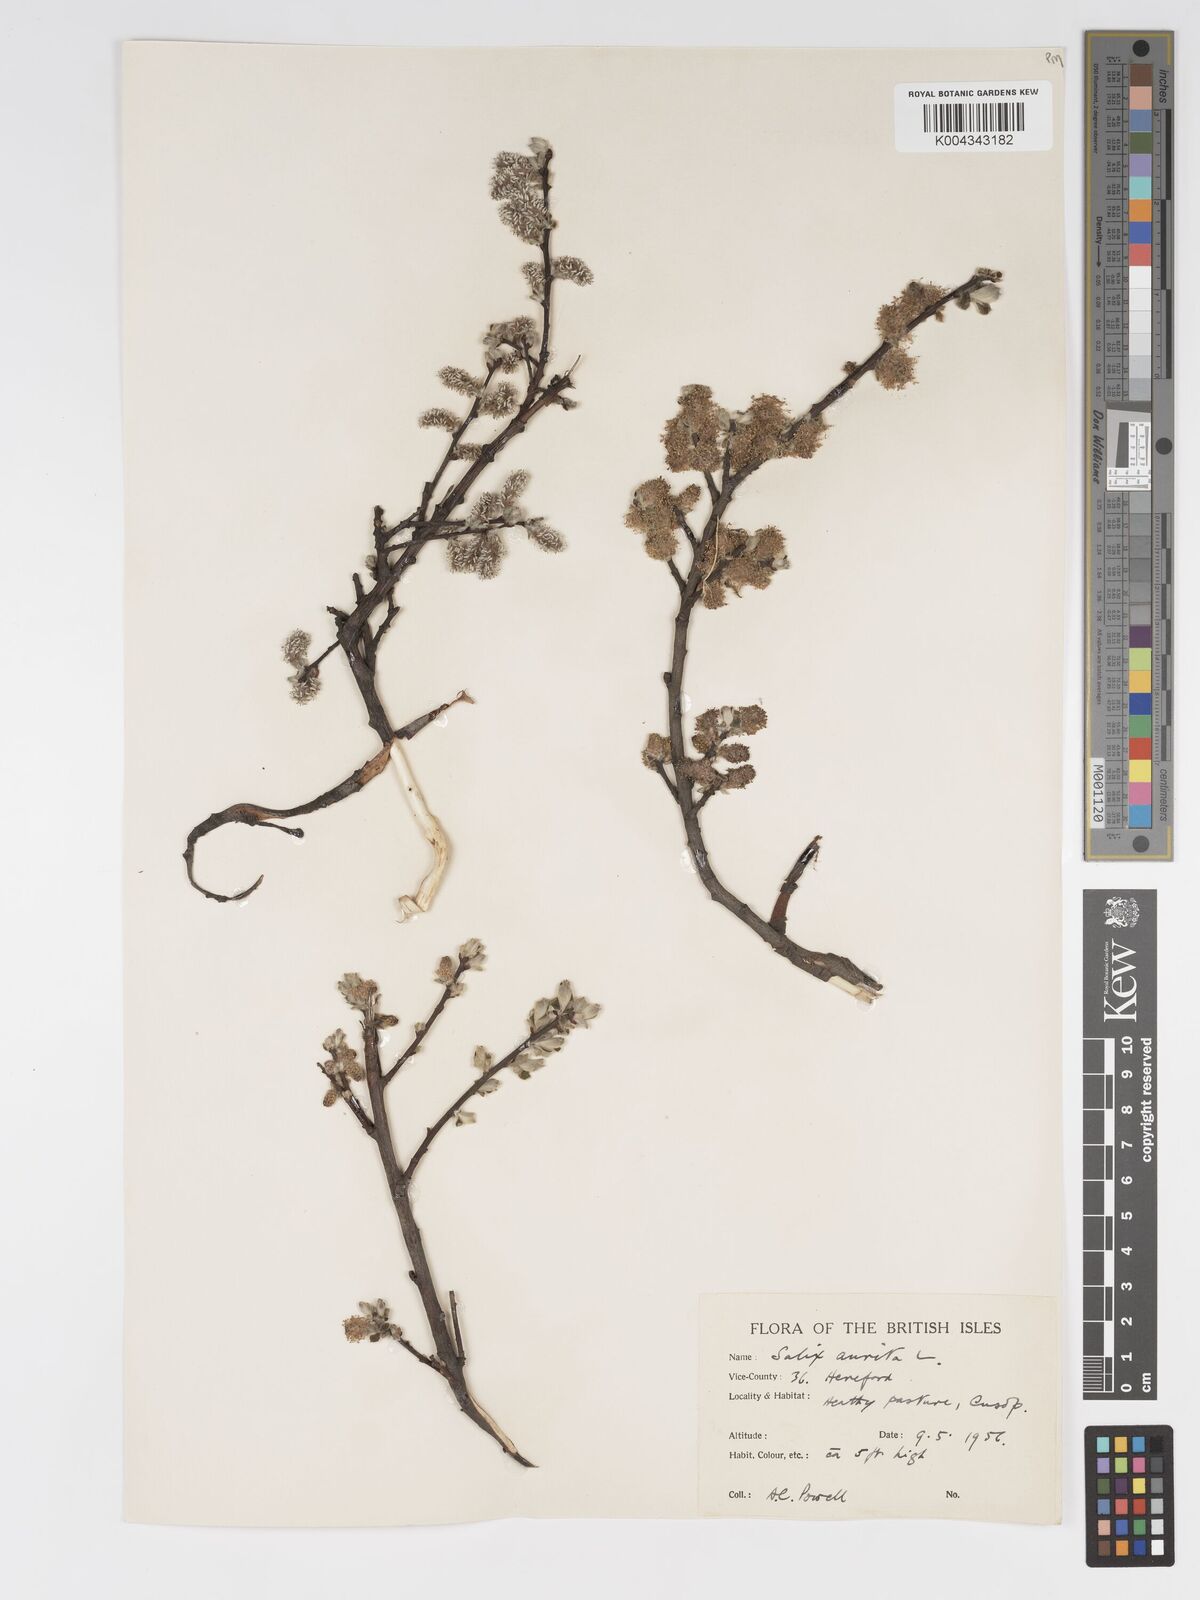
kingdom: Plantae
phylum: Tracheophyta
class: Magnoliopsida
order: Malpighiales
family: Salicaceae
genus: Salix
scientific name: Salix aurita
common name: Eared willow
